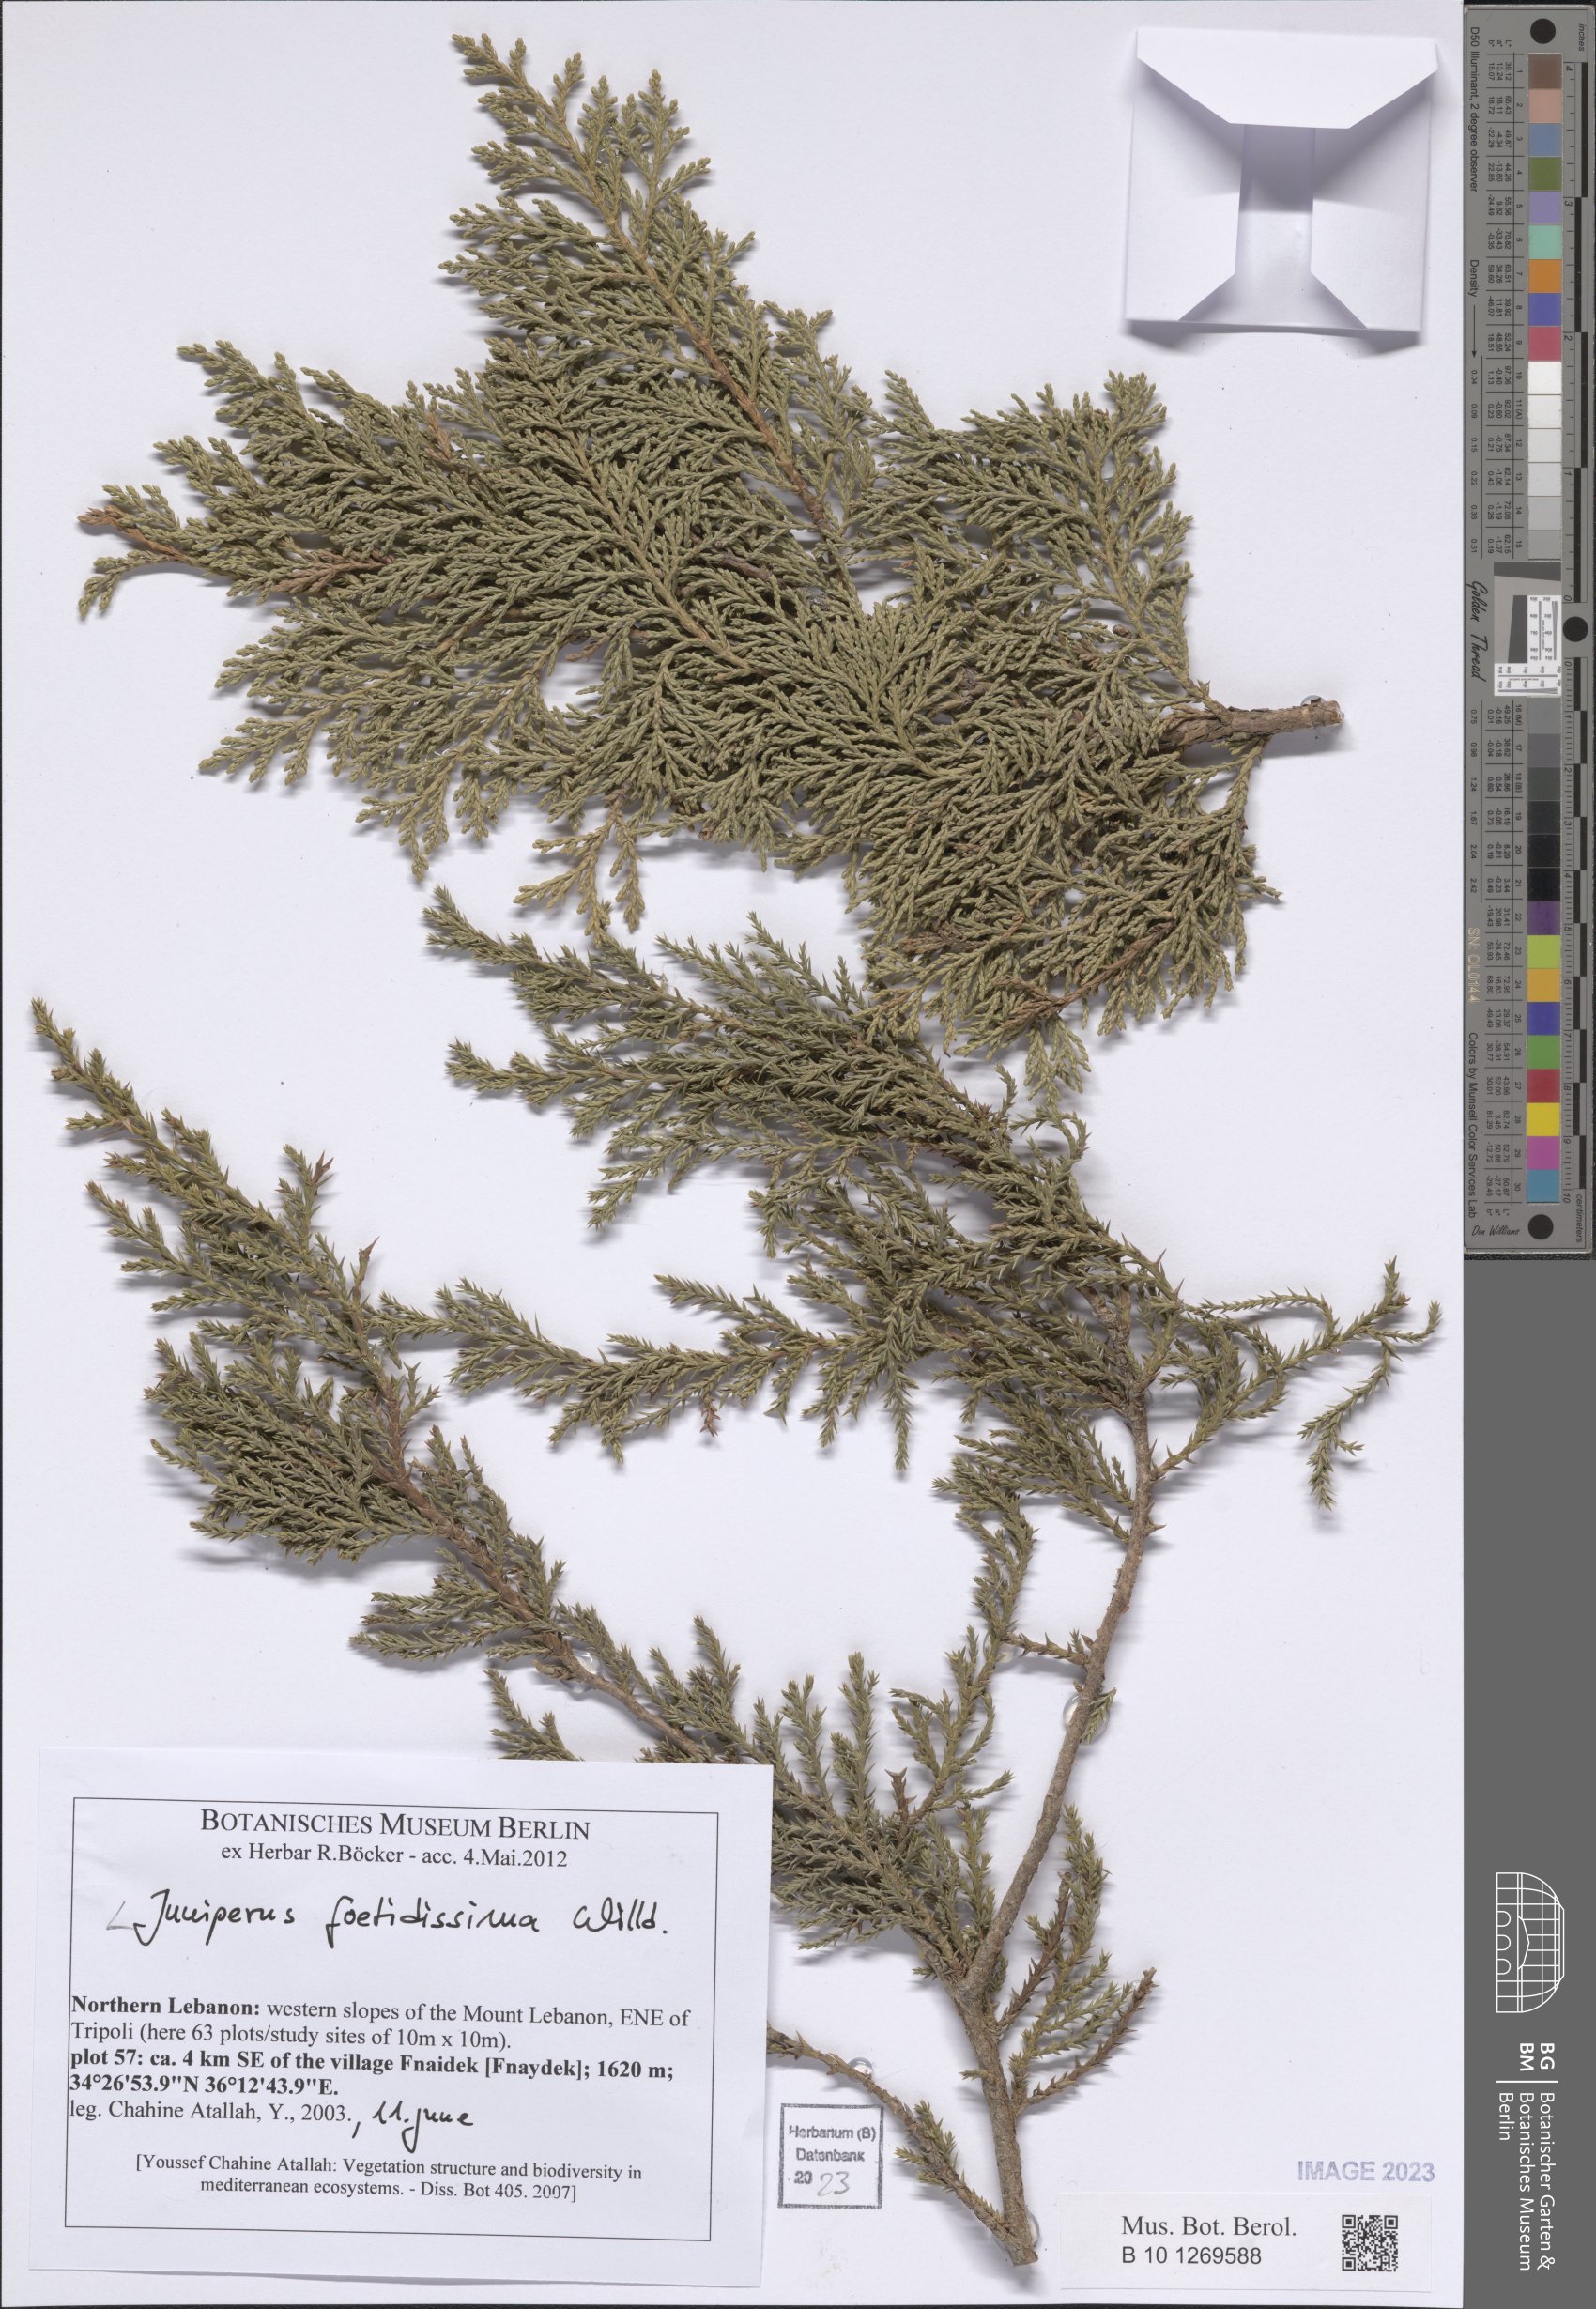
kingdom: Plantae
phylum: Tracheophyta
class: Pinopsida
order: Pinales
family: Cupressaceae
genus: Juniperus
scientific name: Juniperus foetidissima
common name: Stinking juniper
